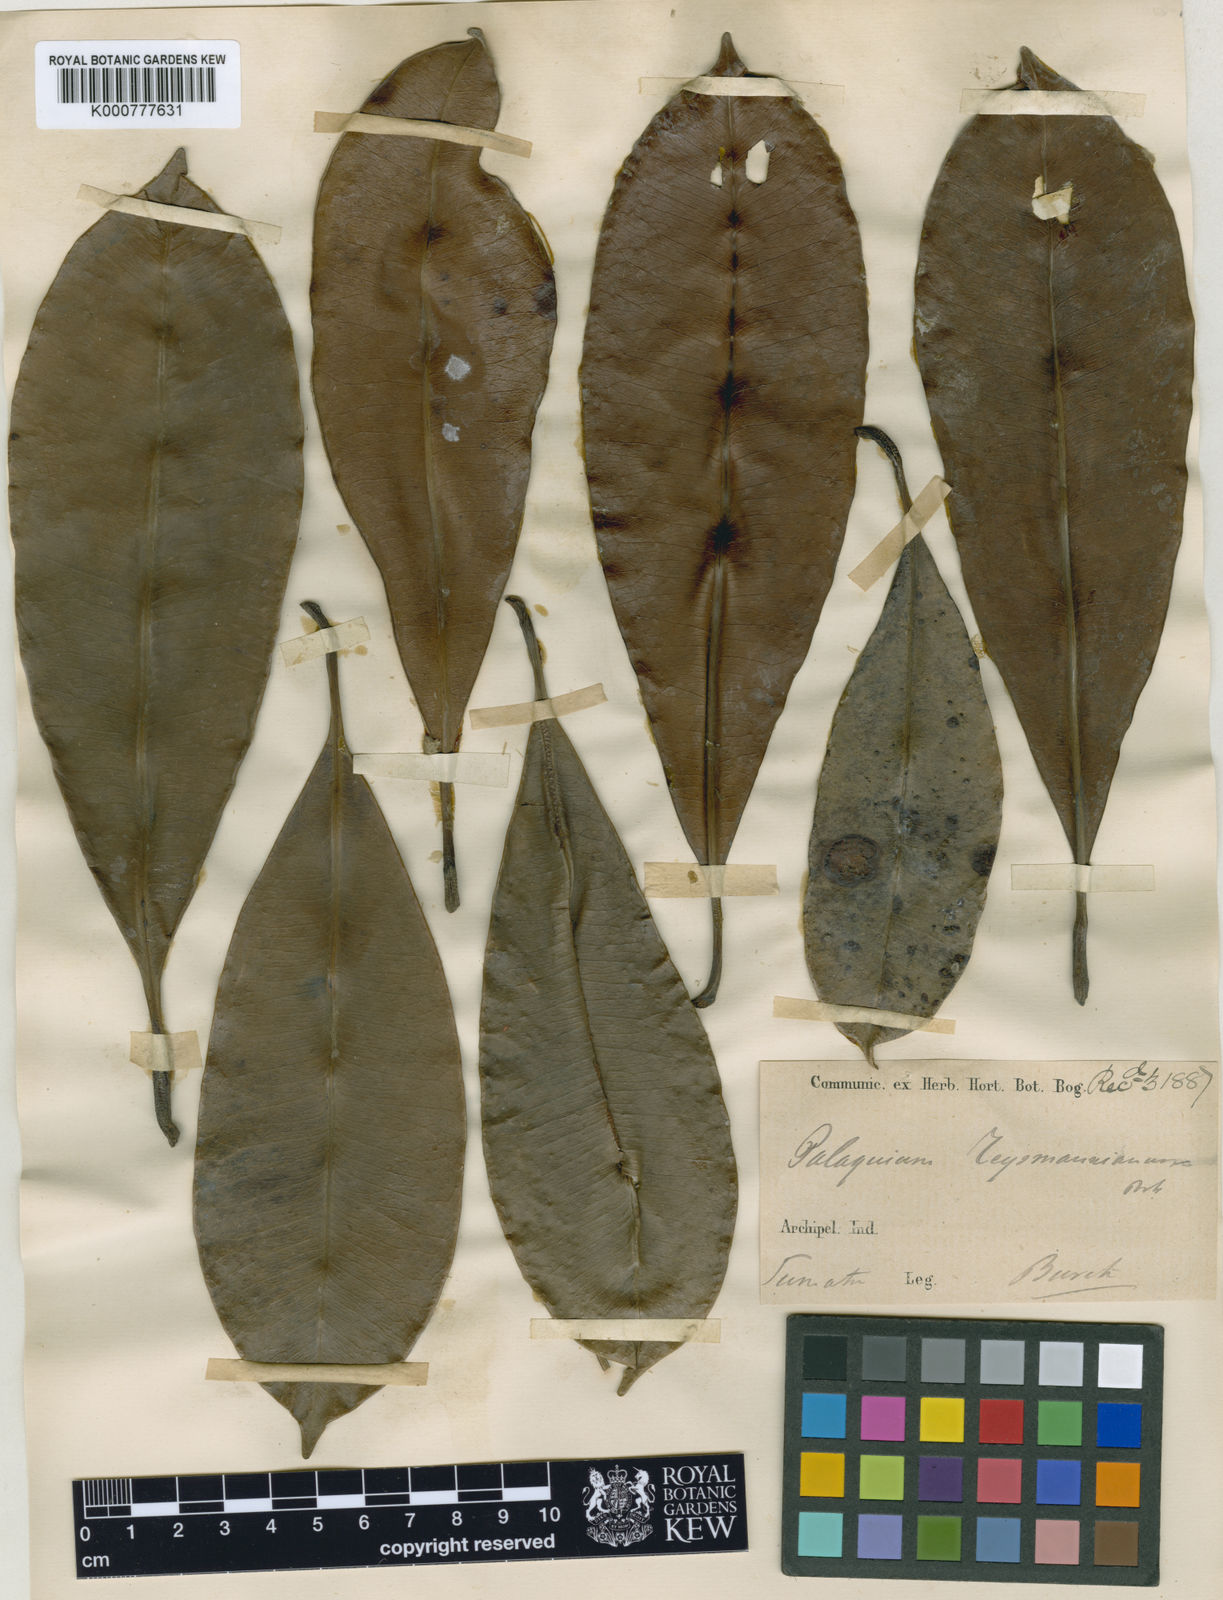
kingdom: Plantae
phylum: Tracheophyta
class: Magnoliopsida
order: Ericales
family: Sapotaceae
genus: Palaquium
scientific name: Palaquium sumatranum
